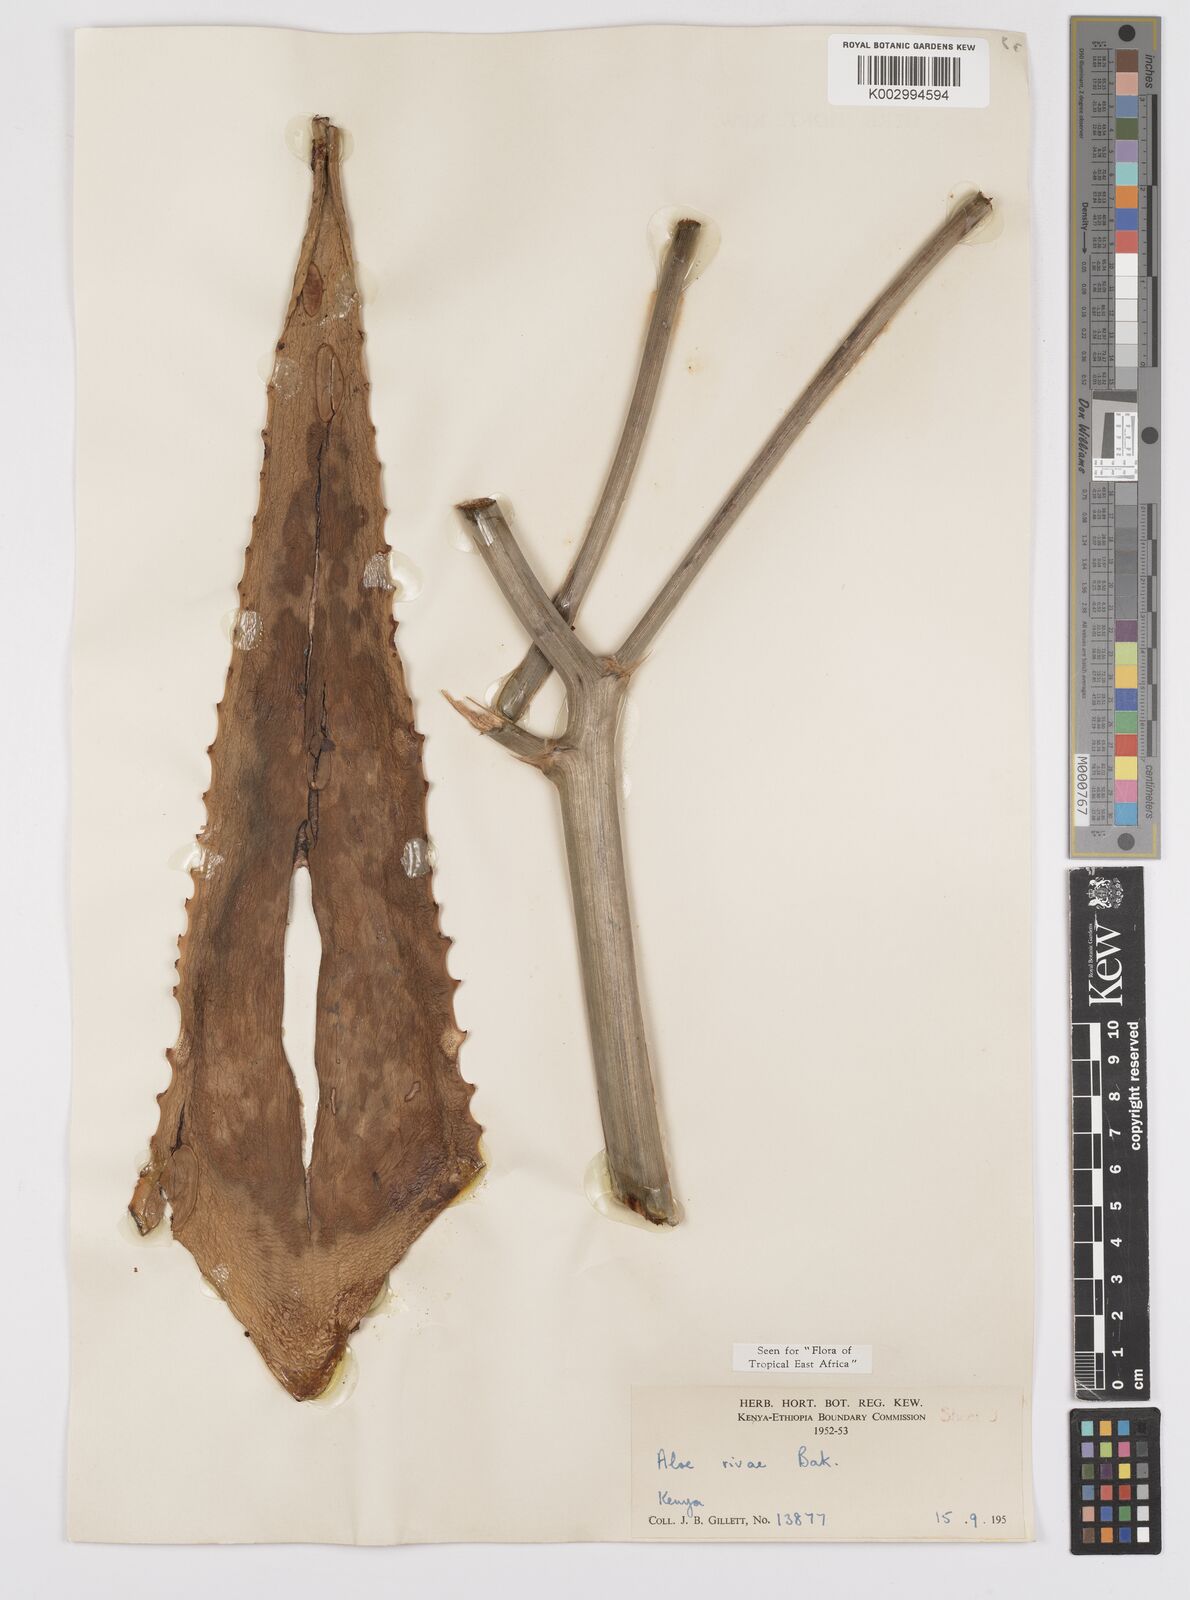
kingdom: Plantae
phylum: Tracheophyta
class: Liliopsida
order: Asparagales
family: Asphodelaceae
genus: Aloe
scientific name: Aloe rivae
